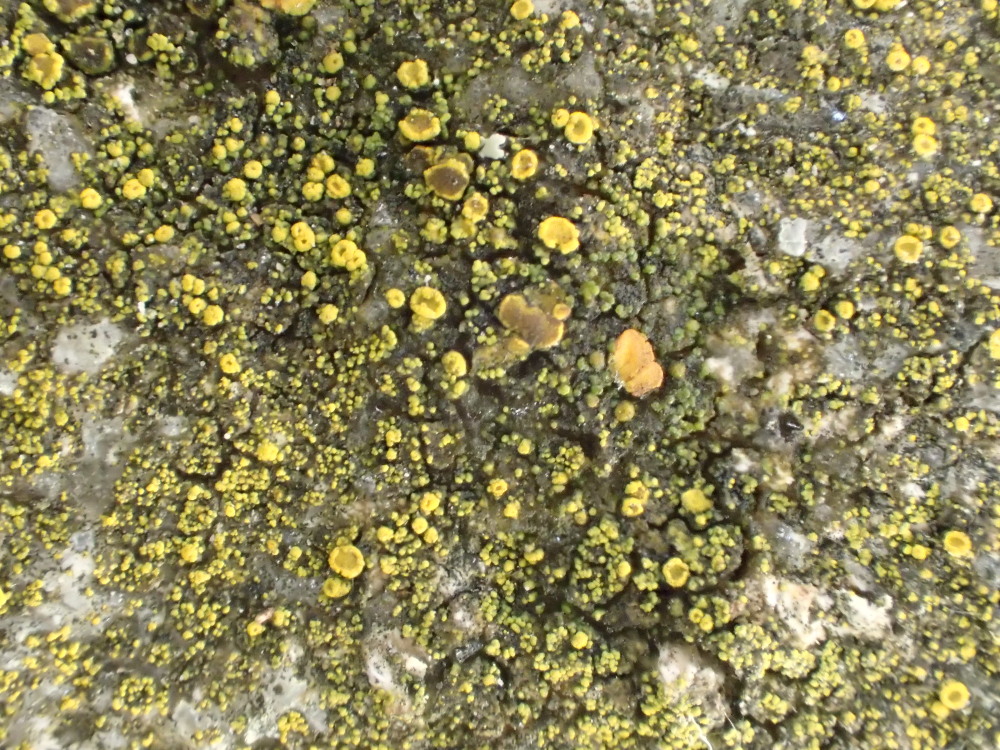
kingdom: Fungi
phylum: Ascomycota
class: Candelariomycetes
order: Candelariales
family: Candelariaceae
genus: Candelariella
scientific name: Candelariella vitellina
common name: almindelig æggeblommelav
